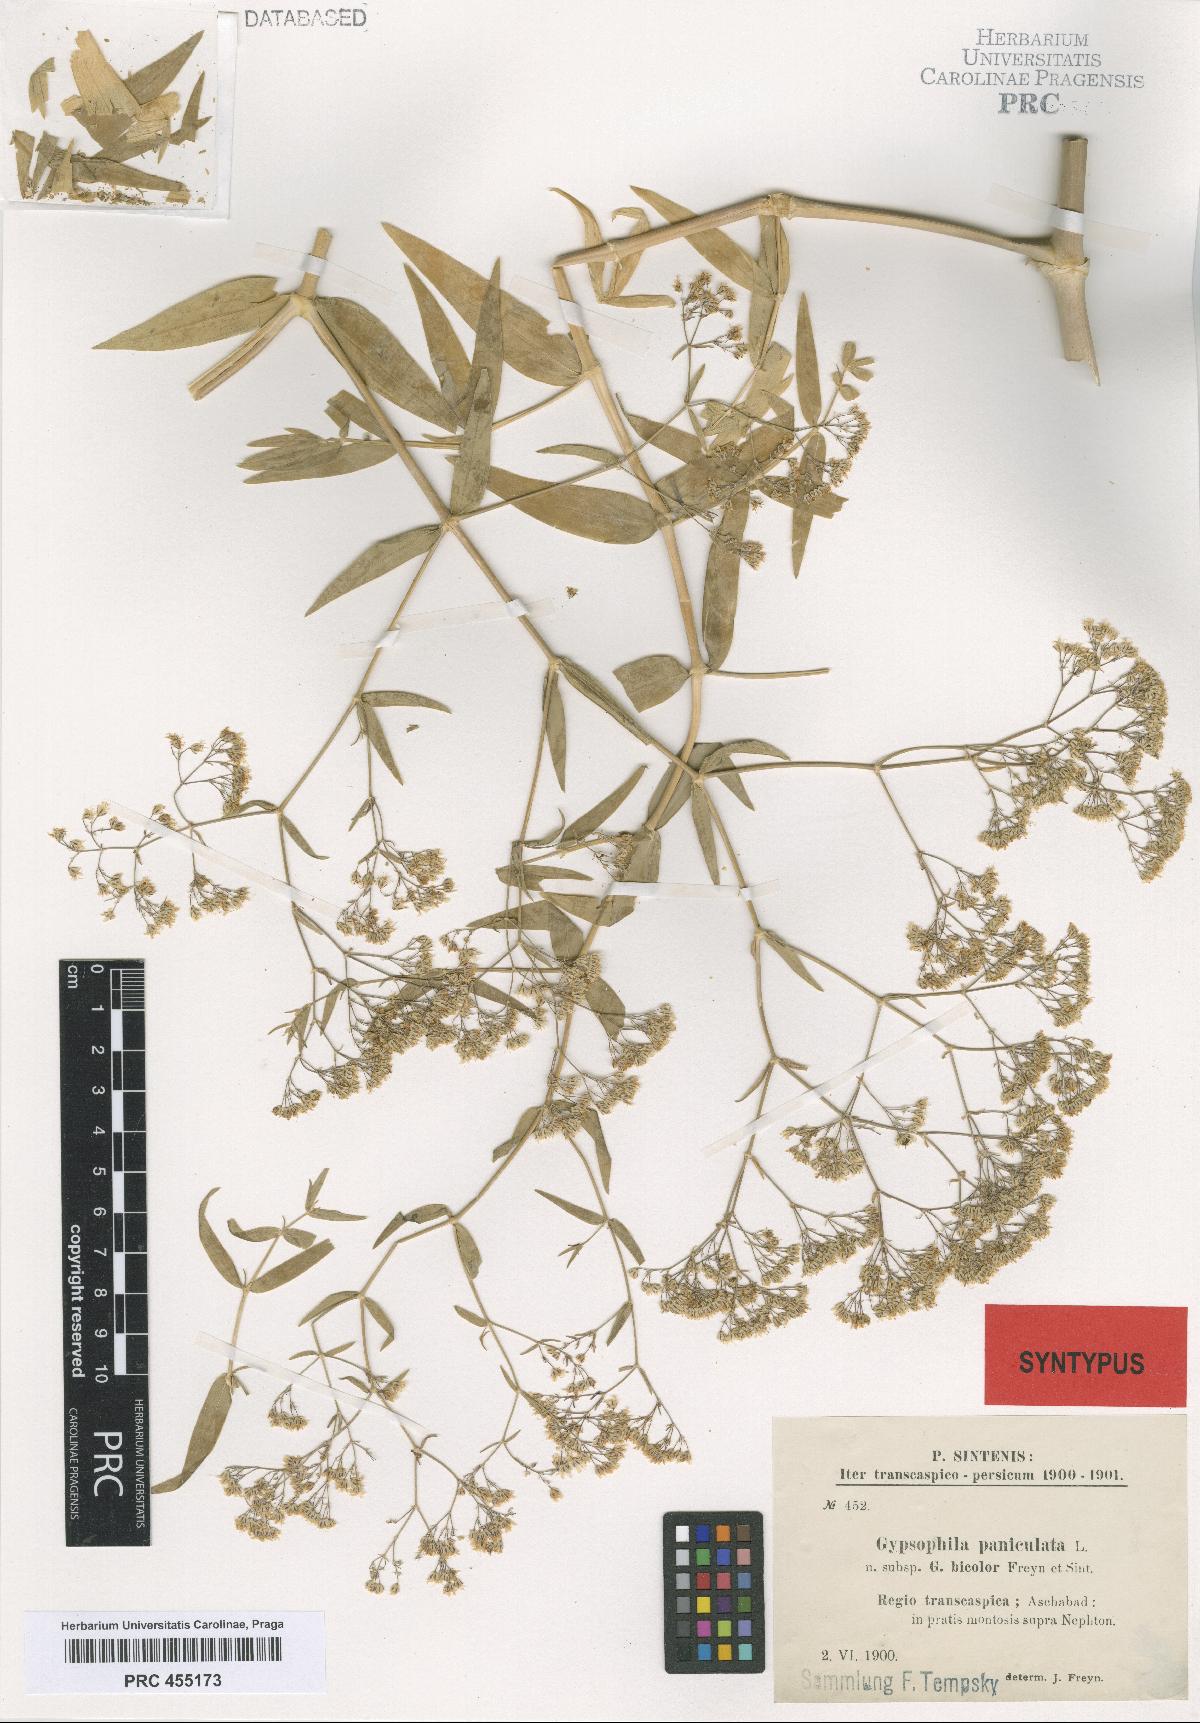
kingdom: Plantae
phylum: Tracheophyta
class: Magnoliopsida
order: Caryophyllales
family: Caryophyllaceae
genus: Gypsophila
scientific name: Gypsophila bicolor
